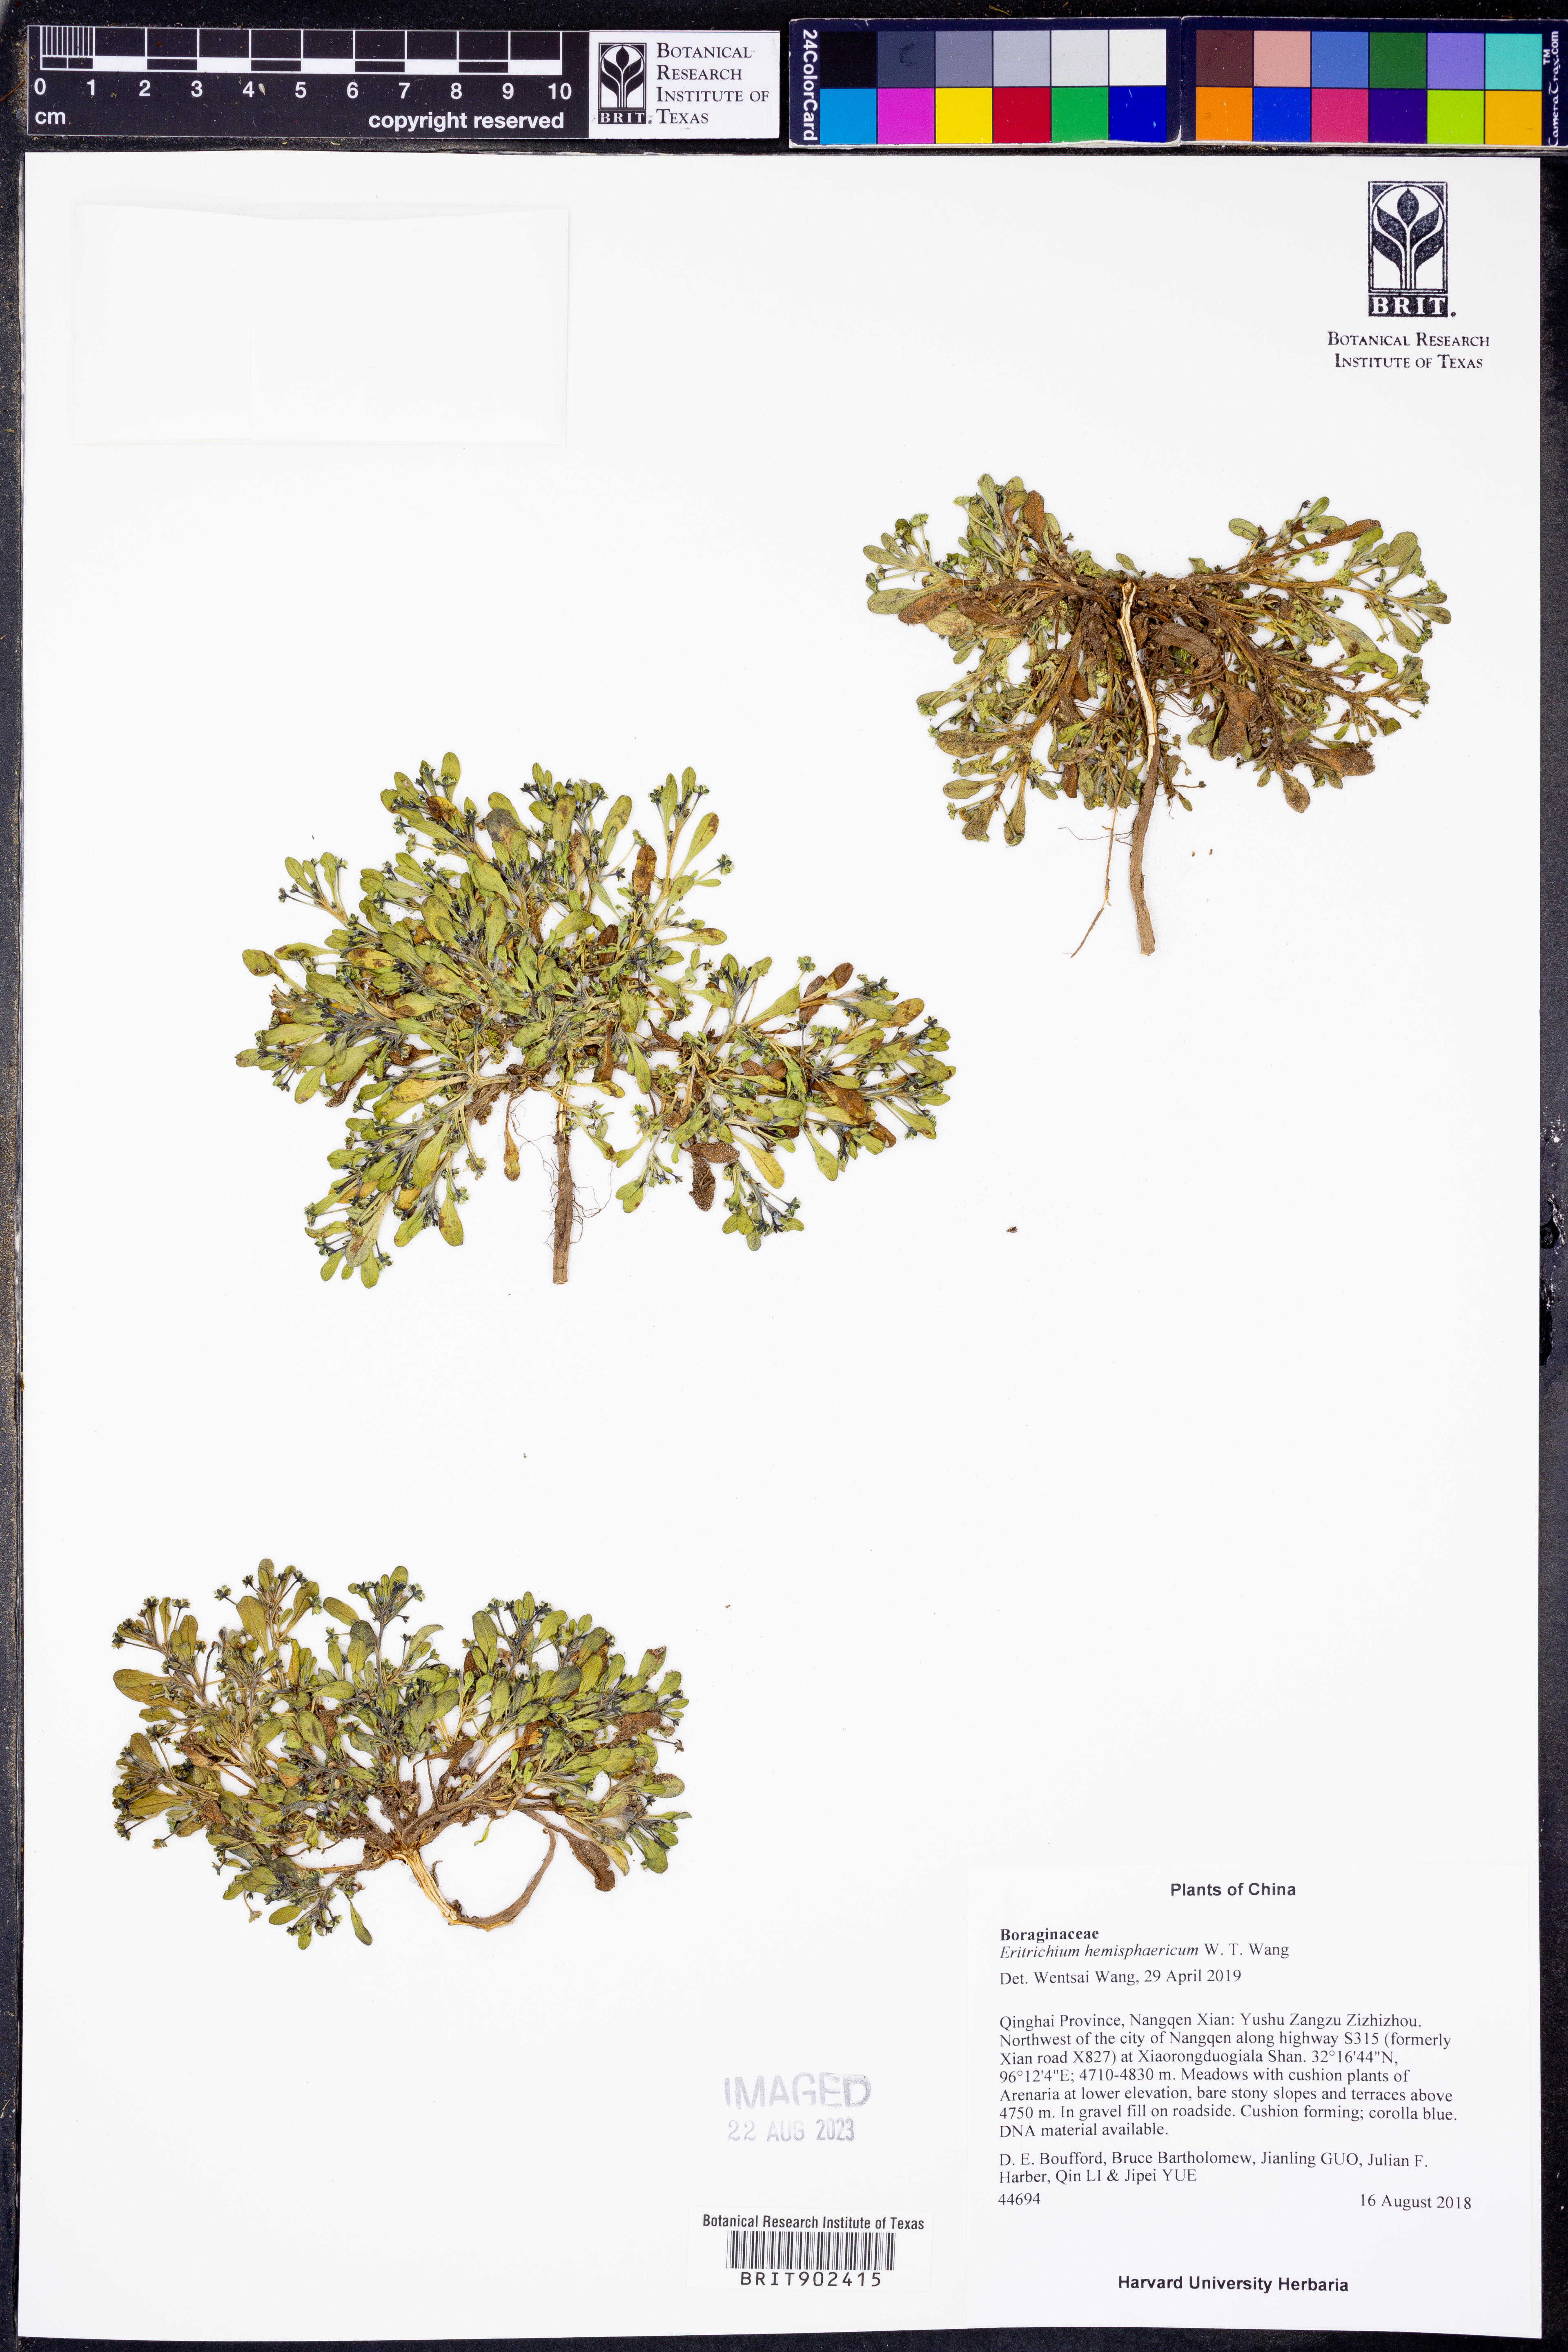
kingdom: Plantae
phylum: Tracheophyta
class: Magnoliopsida
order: Boraginales
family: Boraginaceae
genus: Eritrichium
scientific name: Eritrichium
